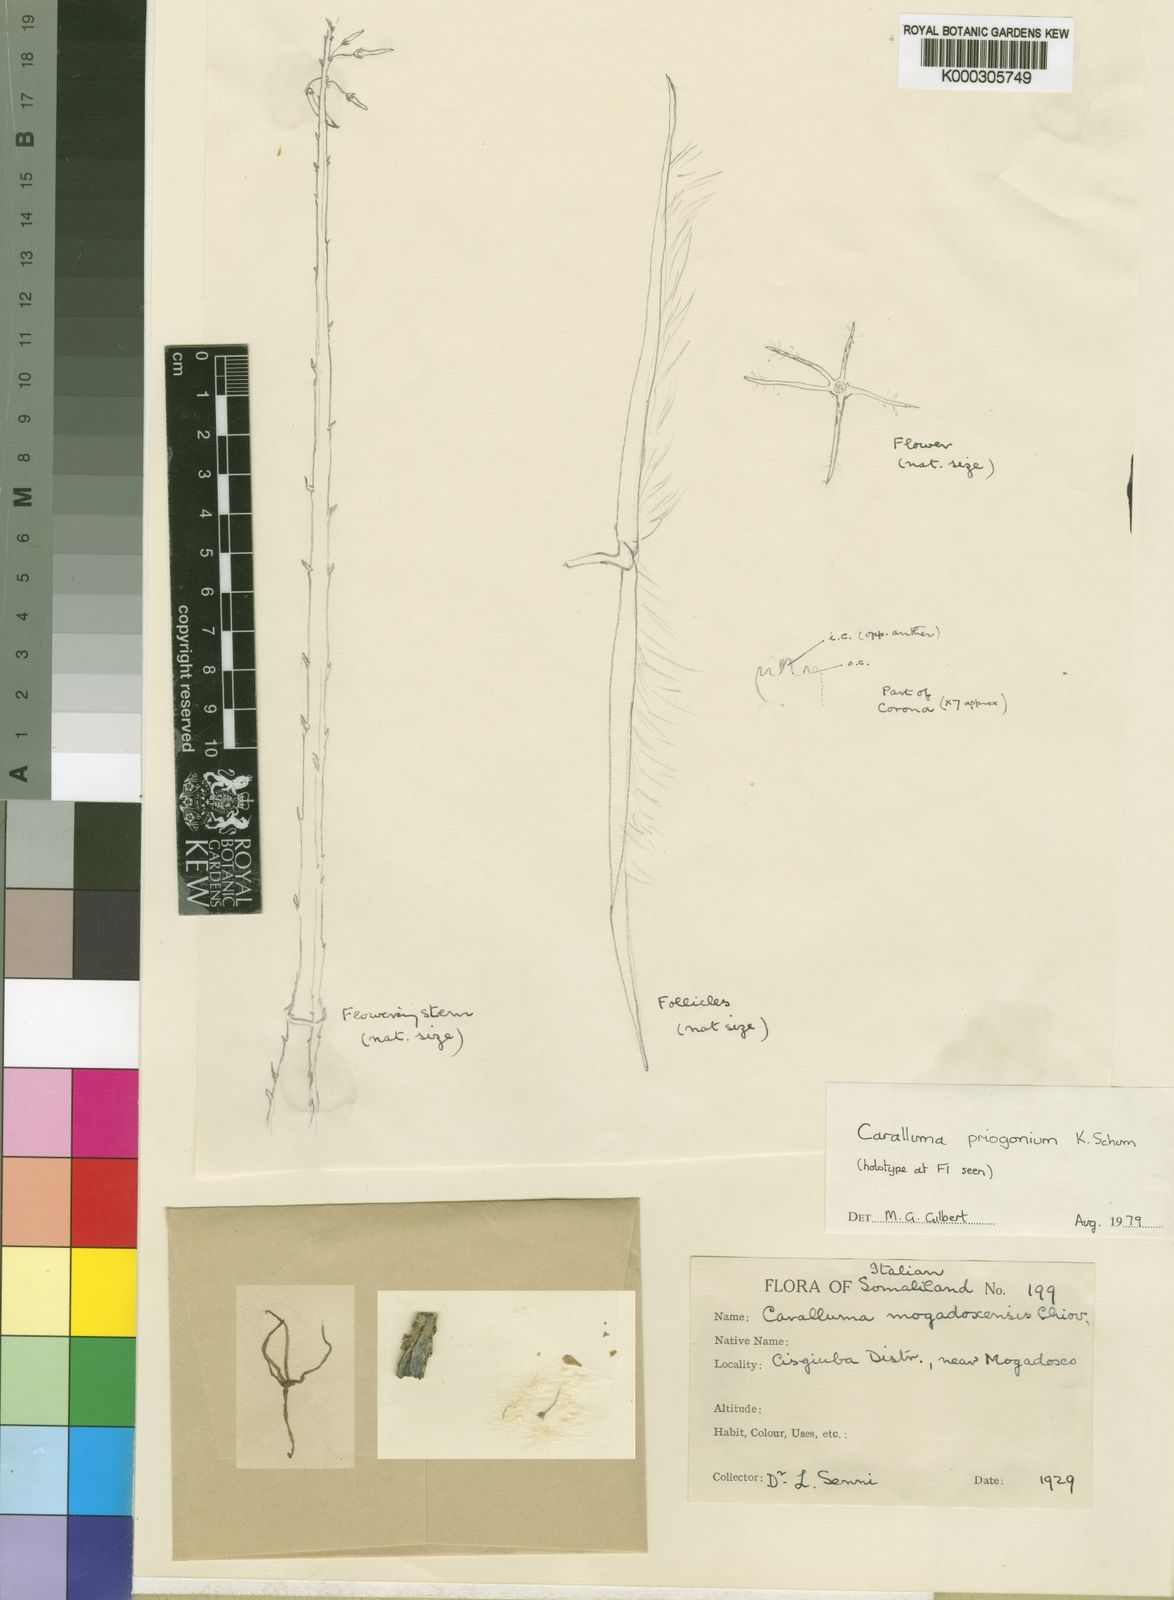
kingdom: Plantae
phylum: Tracheophyta
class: Magnoliopsida
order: Gentianales
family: Apocynaceae
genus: Ceropegia
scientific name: Ceropegia priogonium
